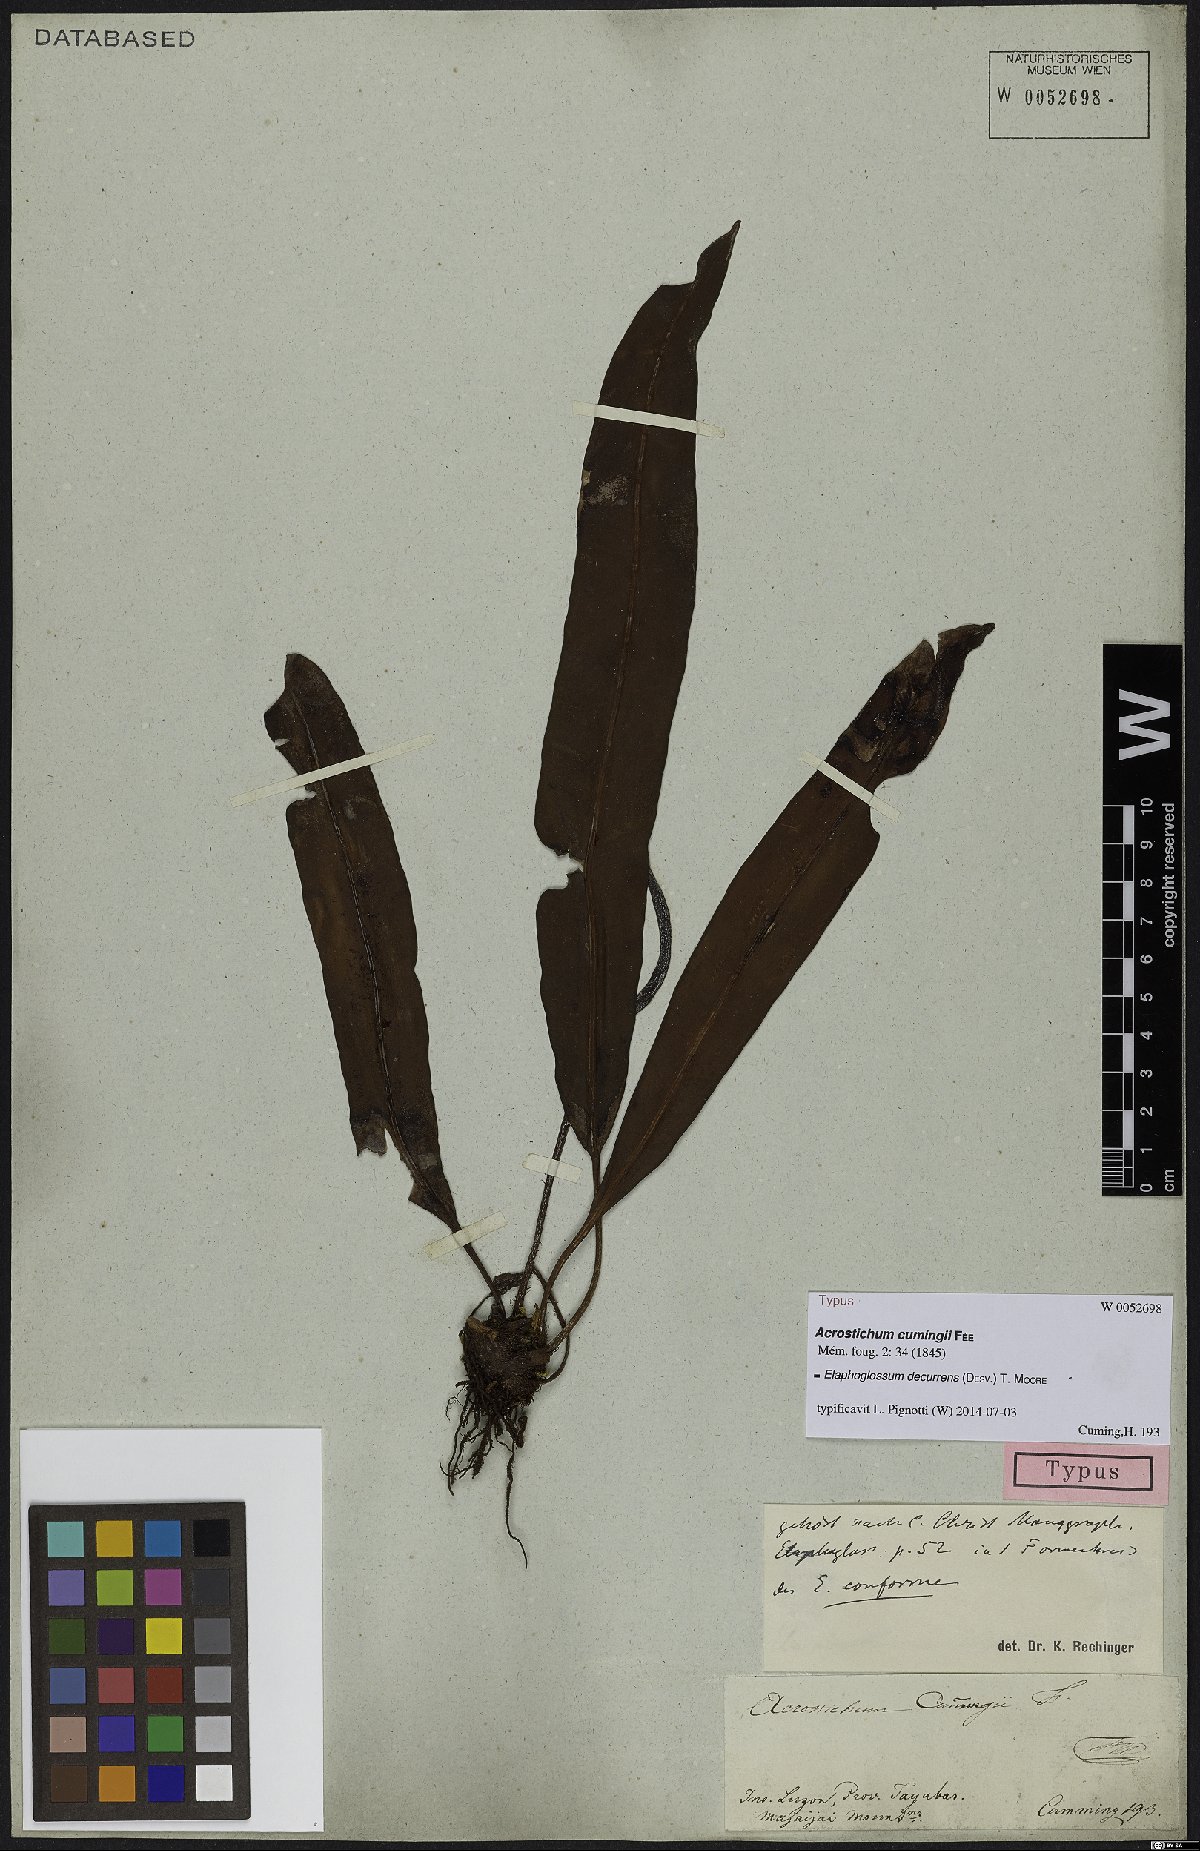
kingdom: Plantae
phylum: Tracheophyta
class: Polypodiopsida
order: Polypodiales
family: Dryopteridaceae
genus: Elaphoglossum
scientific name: Elaphoglossum decurrens
